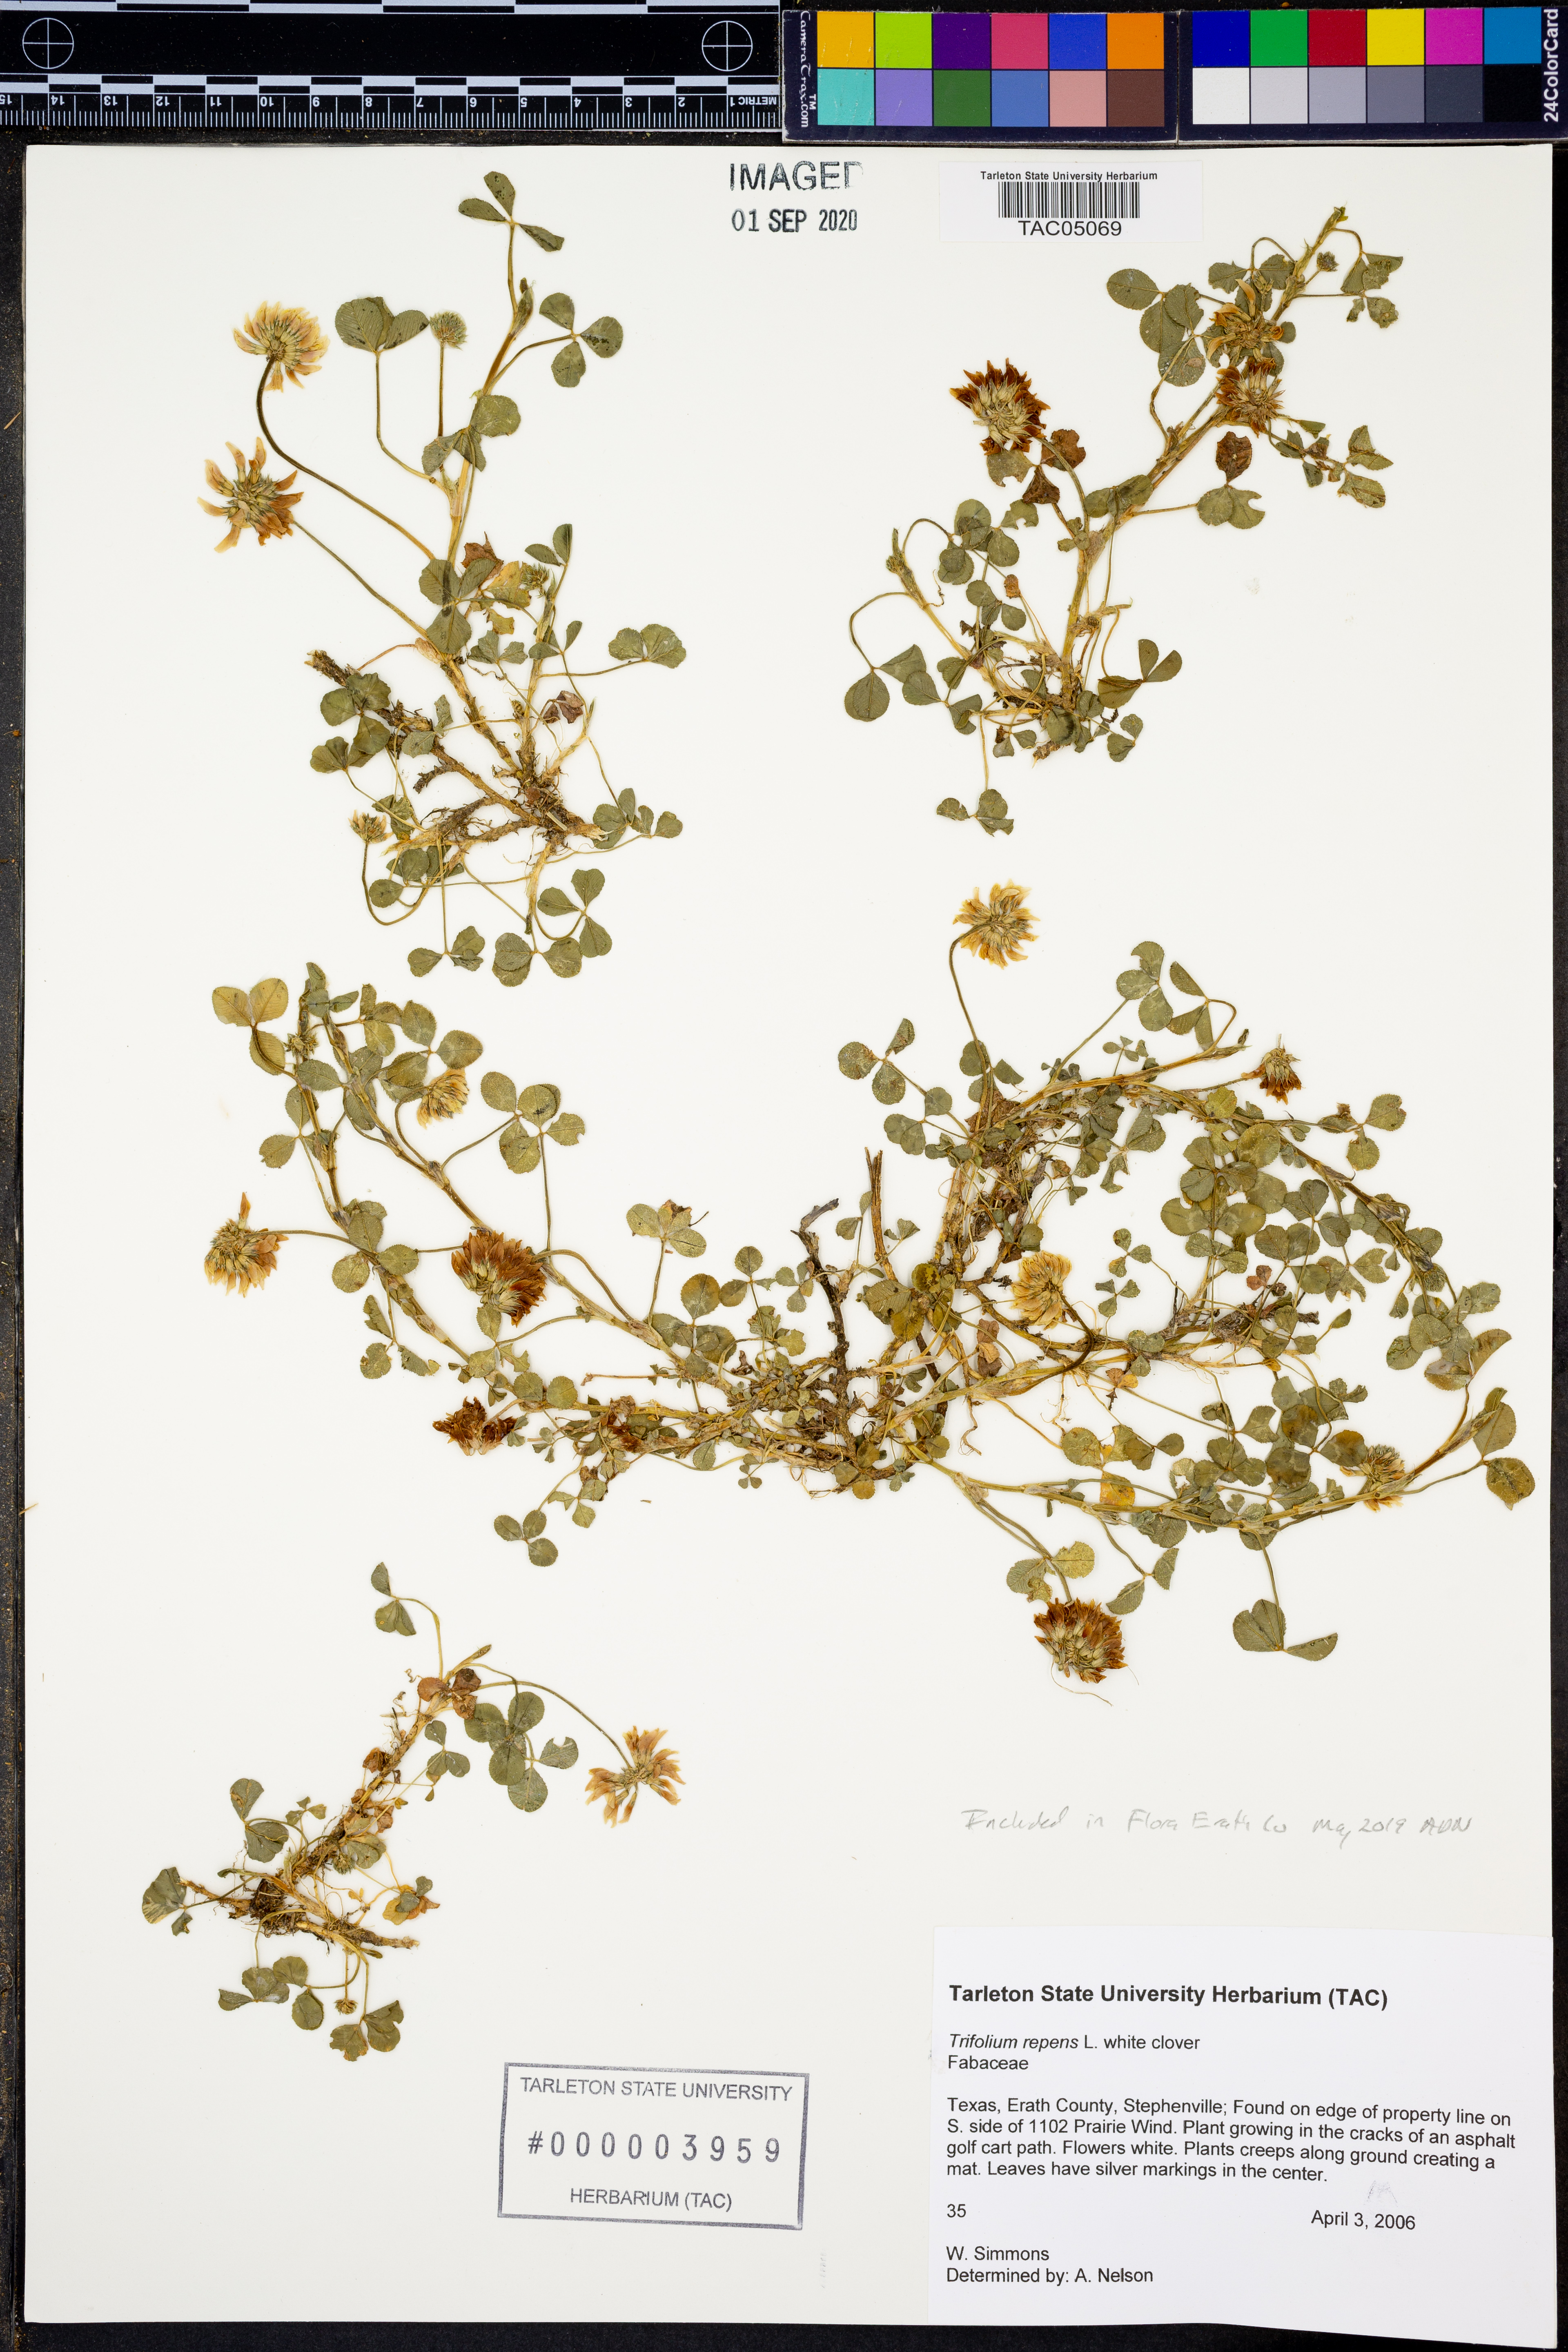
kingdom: Plantae
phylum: Tracheophyta
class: Magnoliopsida
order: Fabales
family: Fabaceae
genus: Trifolium
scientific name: Trifolium repens
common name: White clover
